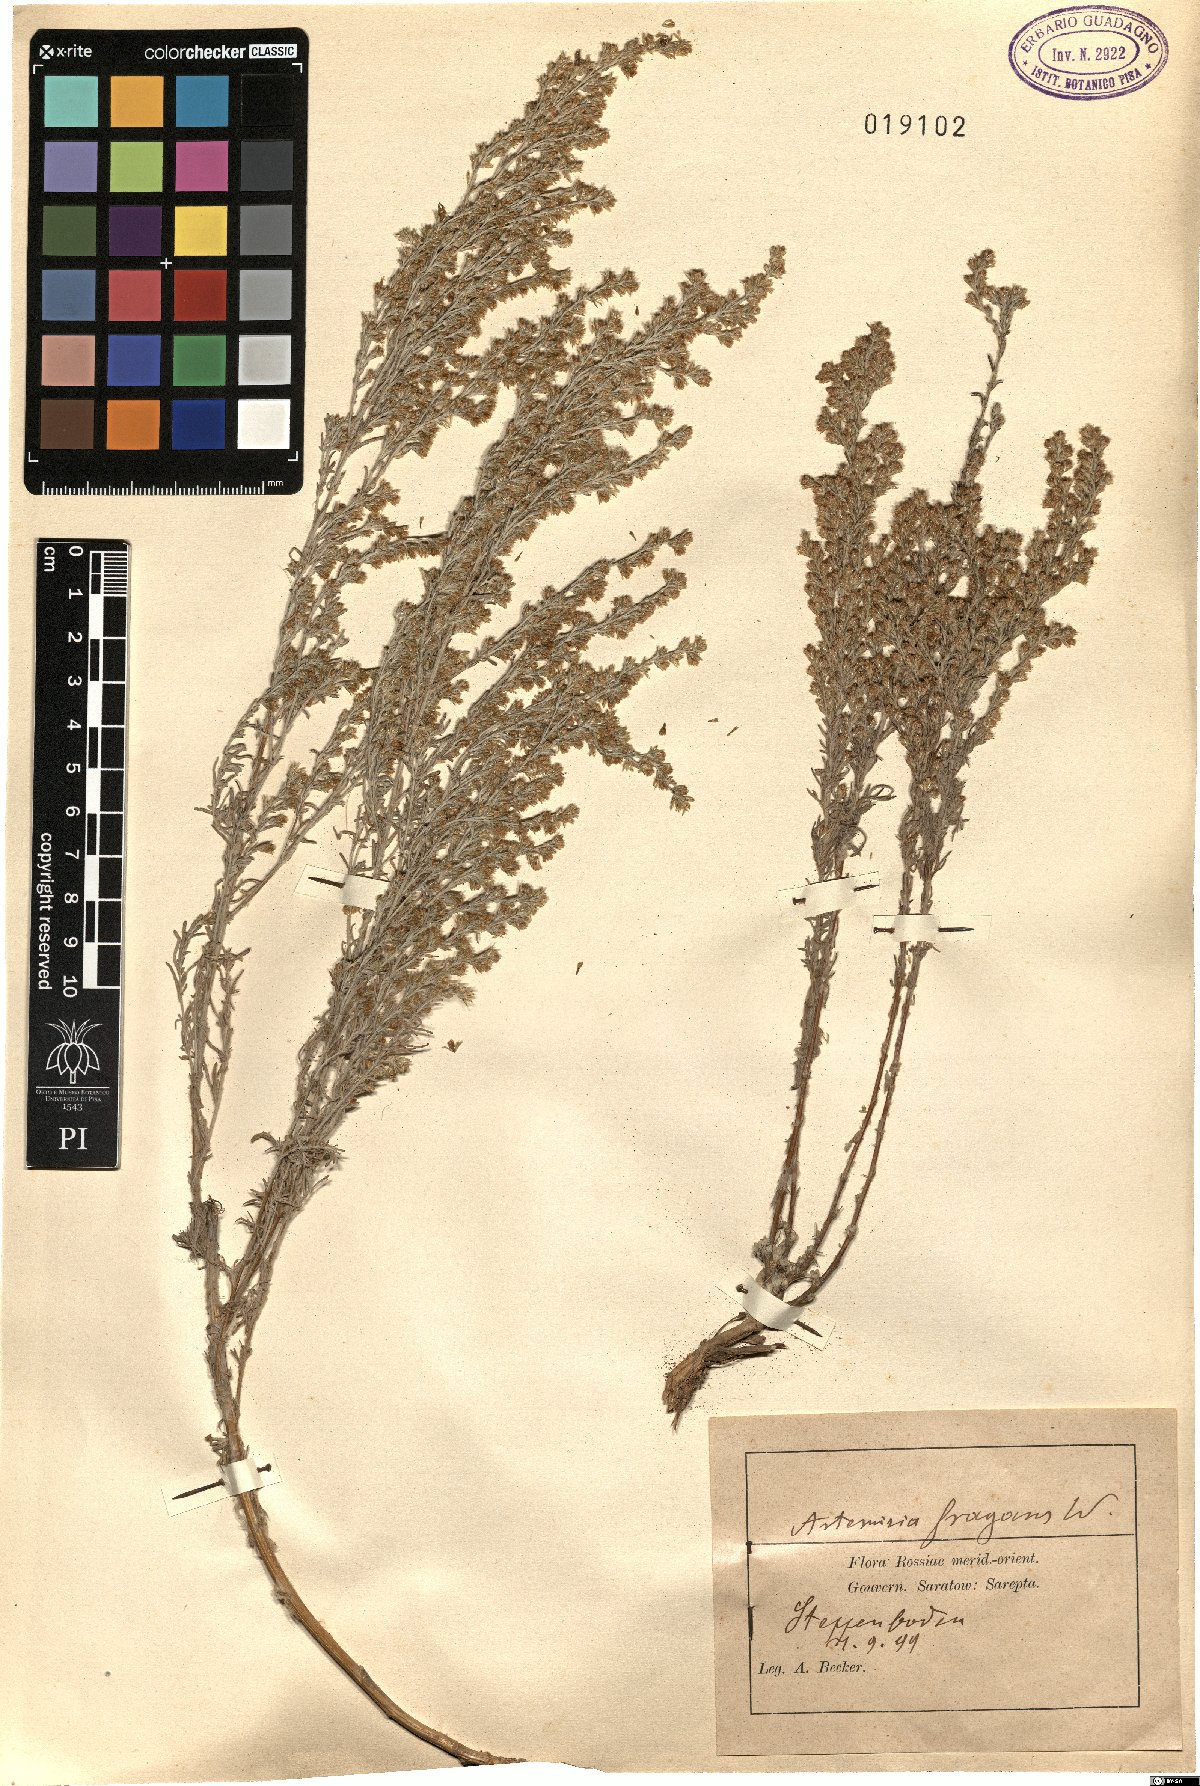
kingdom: Plantae
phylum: Tracheophyta
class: Magnoliopsida
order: Asterales
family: Asteraceae
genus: Artemisia
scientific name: Artemisia fragrans
